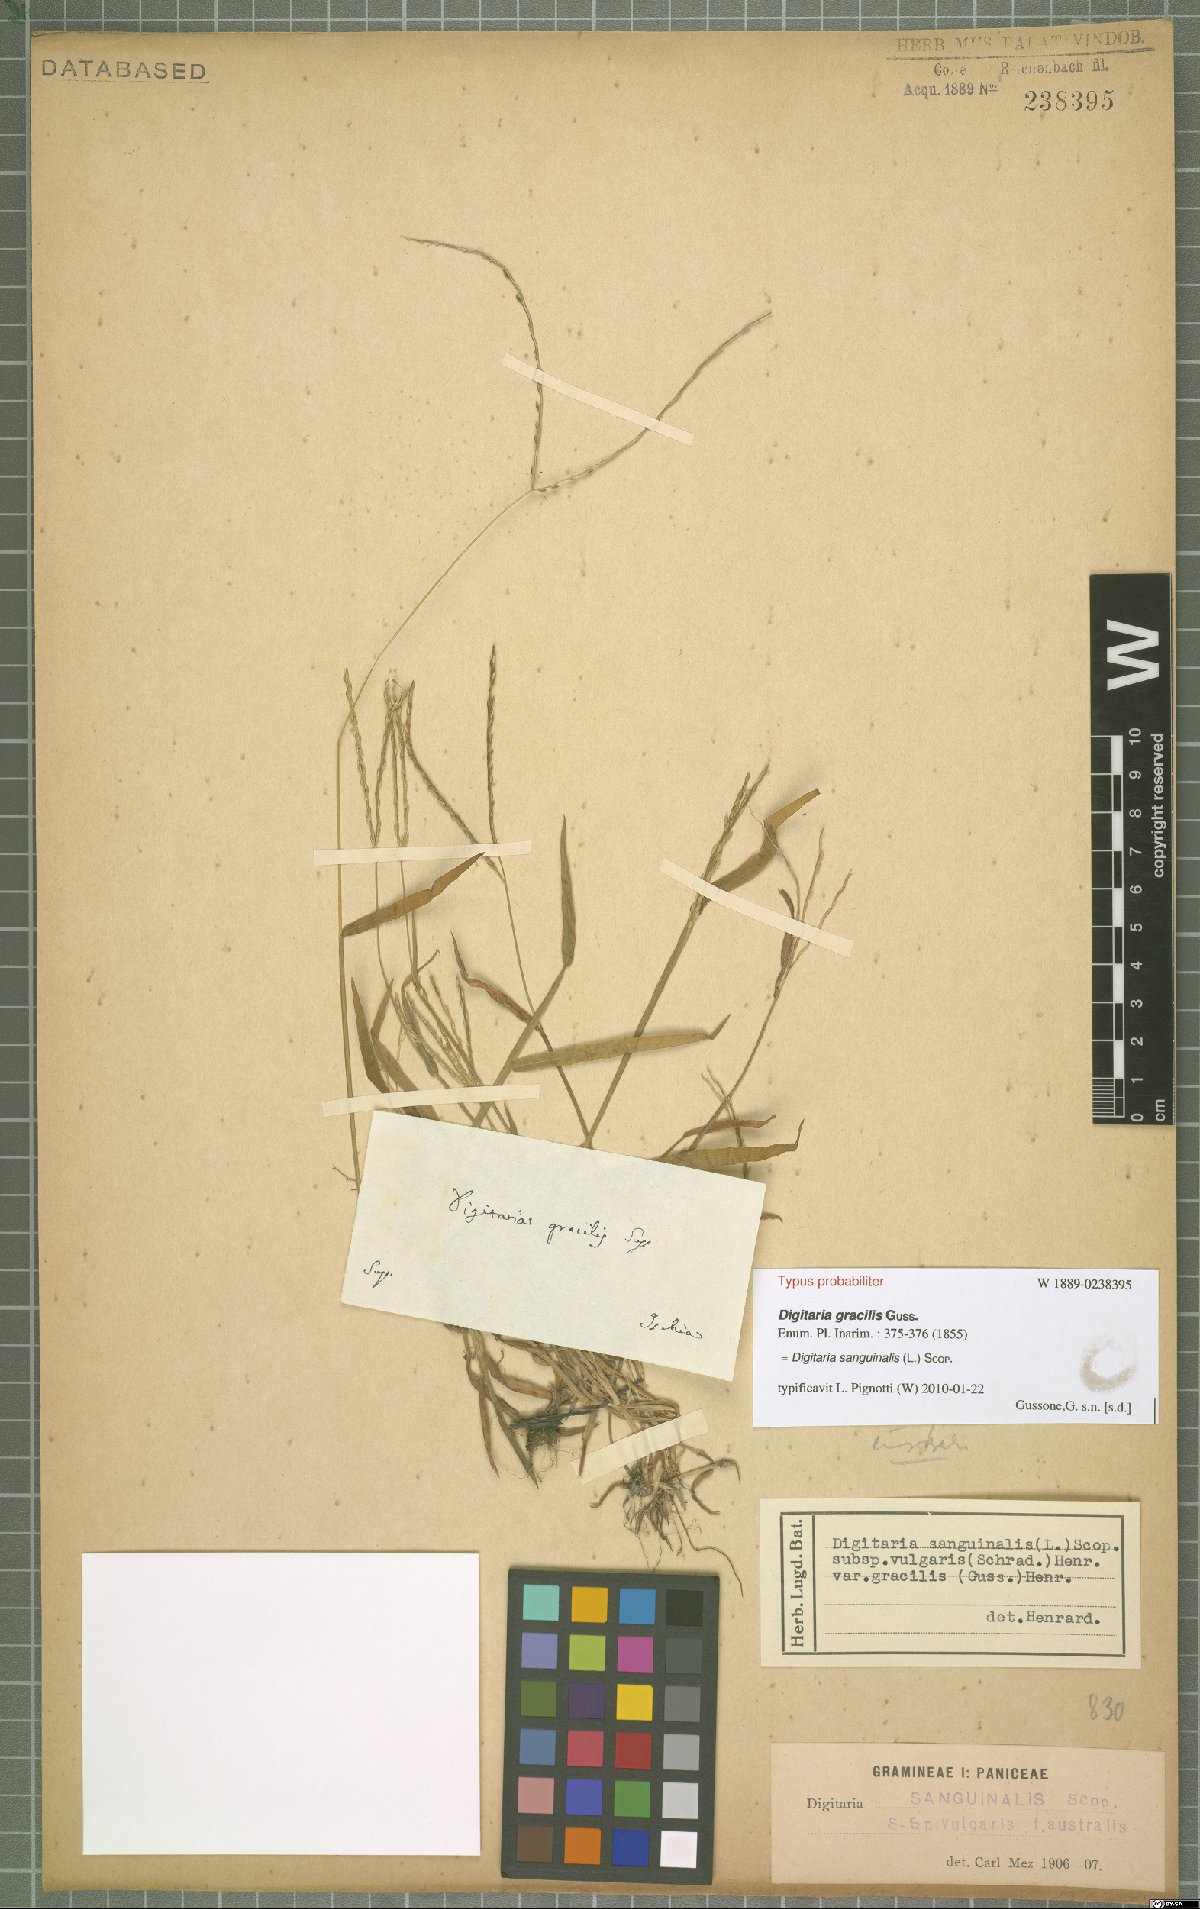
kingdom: Plantae
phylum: Tracheophyta
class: Liliopsida
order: Poales
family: Poaceae
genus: Digitaria
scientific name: Digitaria sanguinalis
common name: Hairy crabgrass
